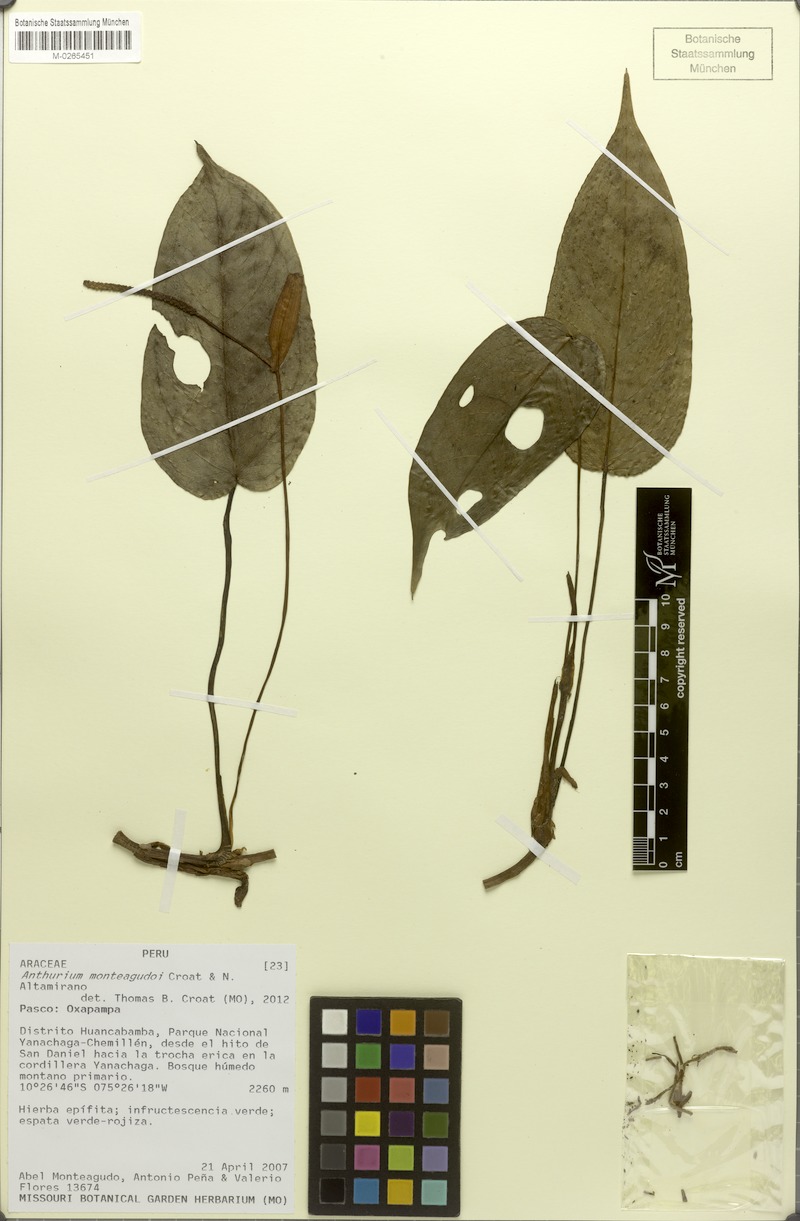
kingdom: Plantae
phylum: Tracheophyta
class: Liliopsida
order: Alismatales
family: Araceae
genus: Anthurium
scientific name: Anthurium monteagudoi
